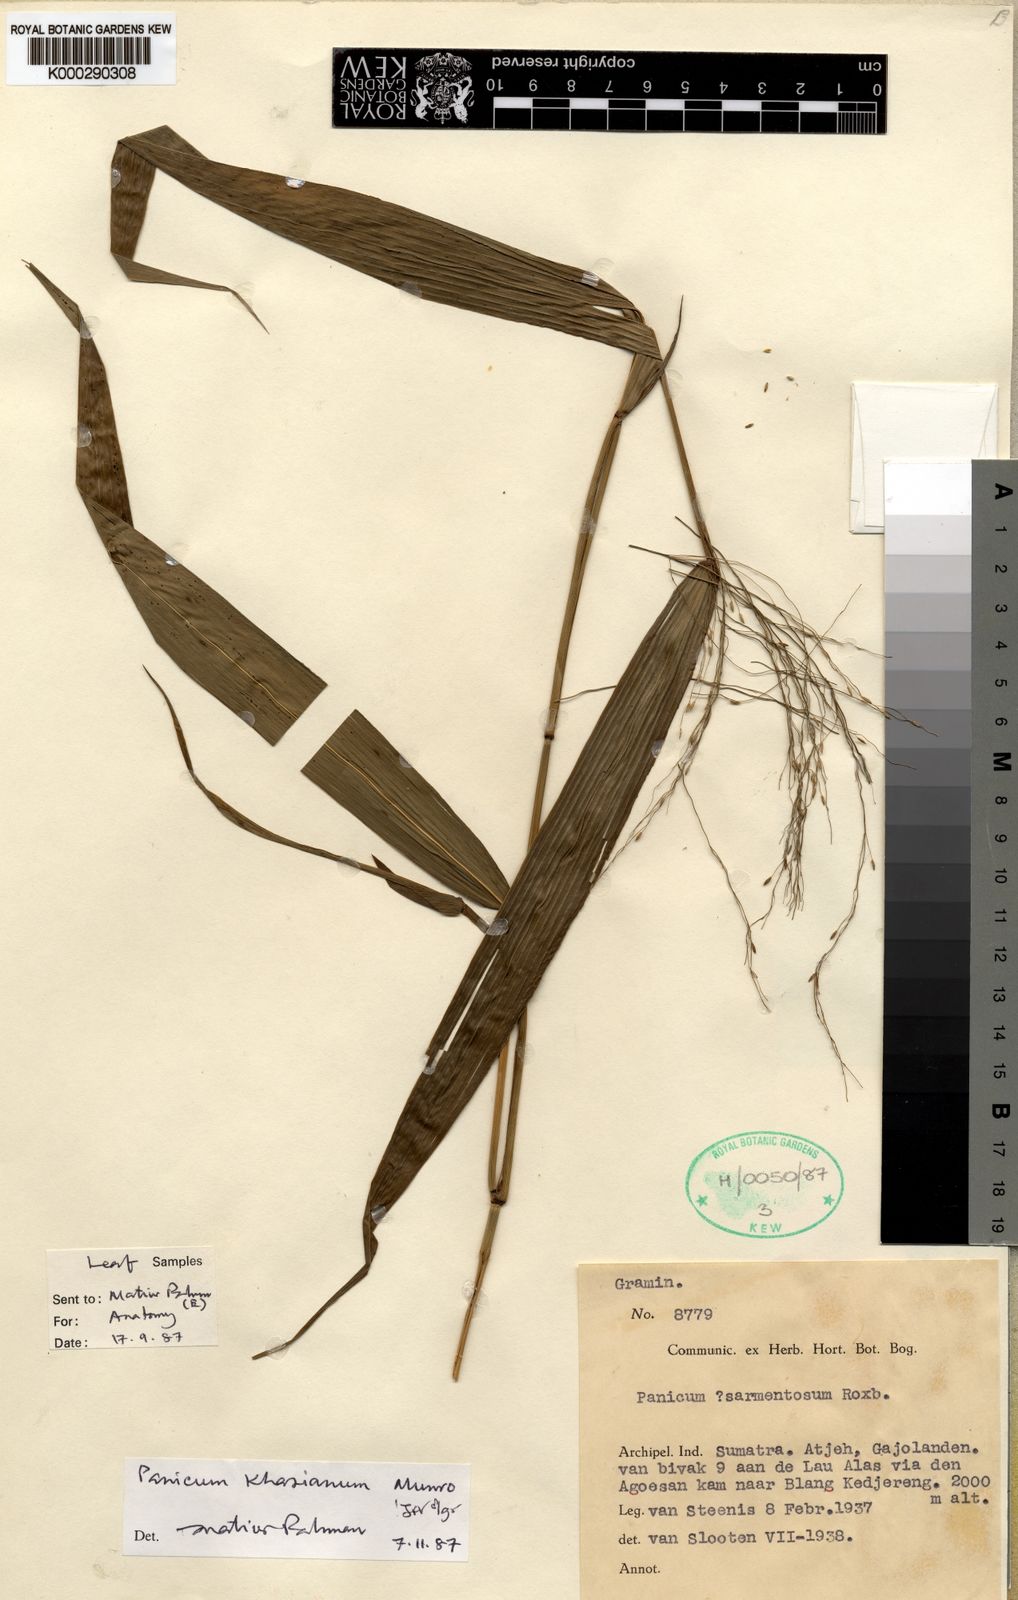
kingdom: Plantae
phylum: Tracheophyta
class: Liliopsida
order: Poales
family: Poaceae
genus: Panicum
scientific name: Panicum khasianum
